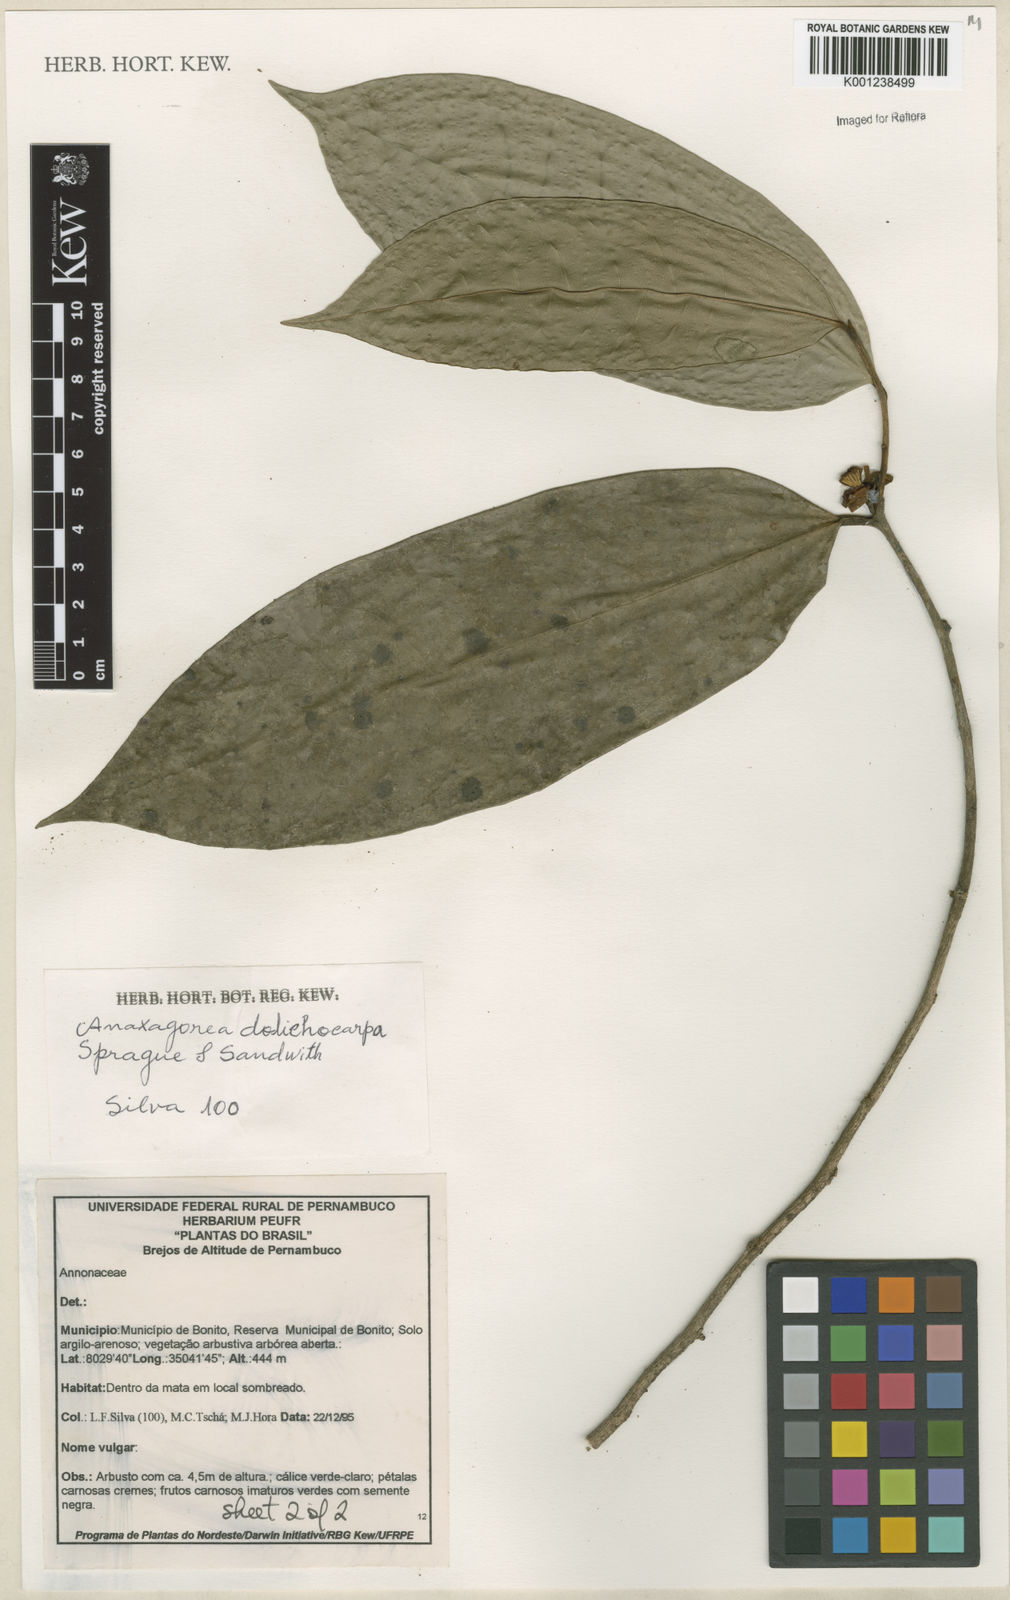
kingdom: Plantae
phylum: Tracheophyta
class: Magnoliopsida
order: Magnoliales
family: Annonaceae
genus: Anaxagorea
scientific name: Anaxagorea dolichocarpa
